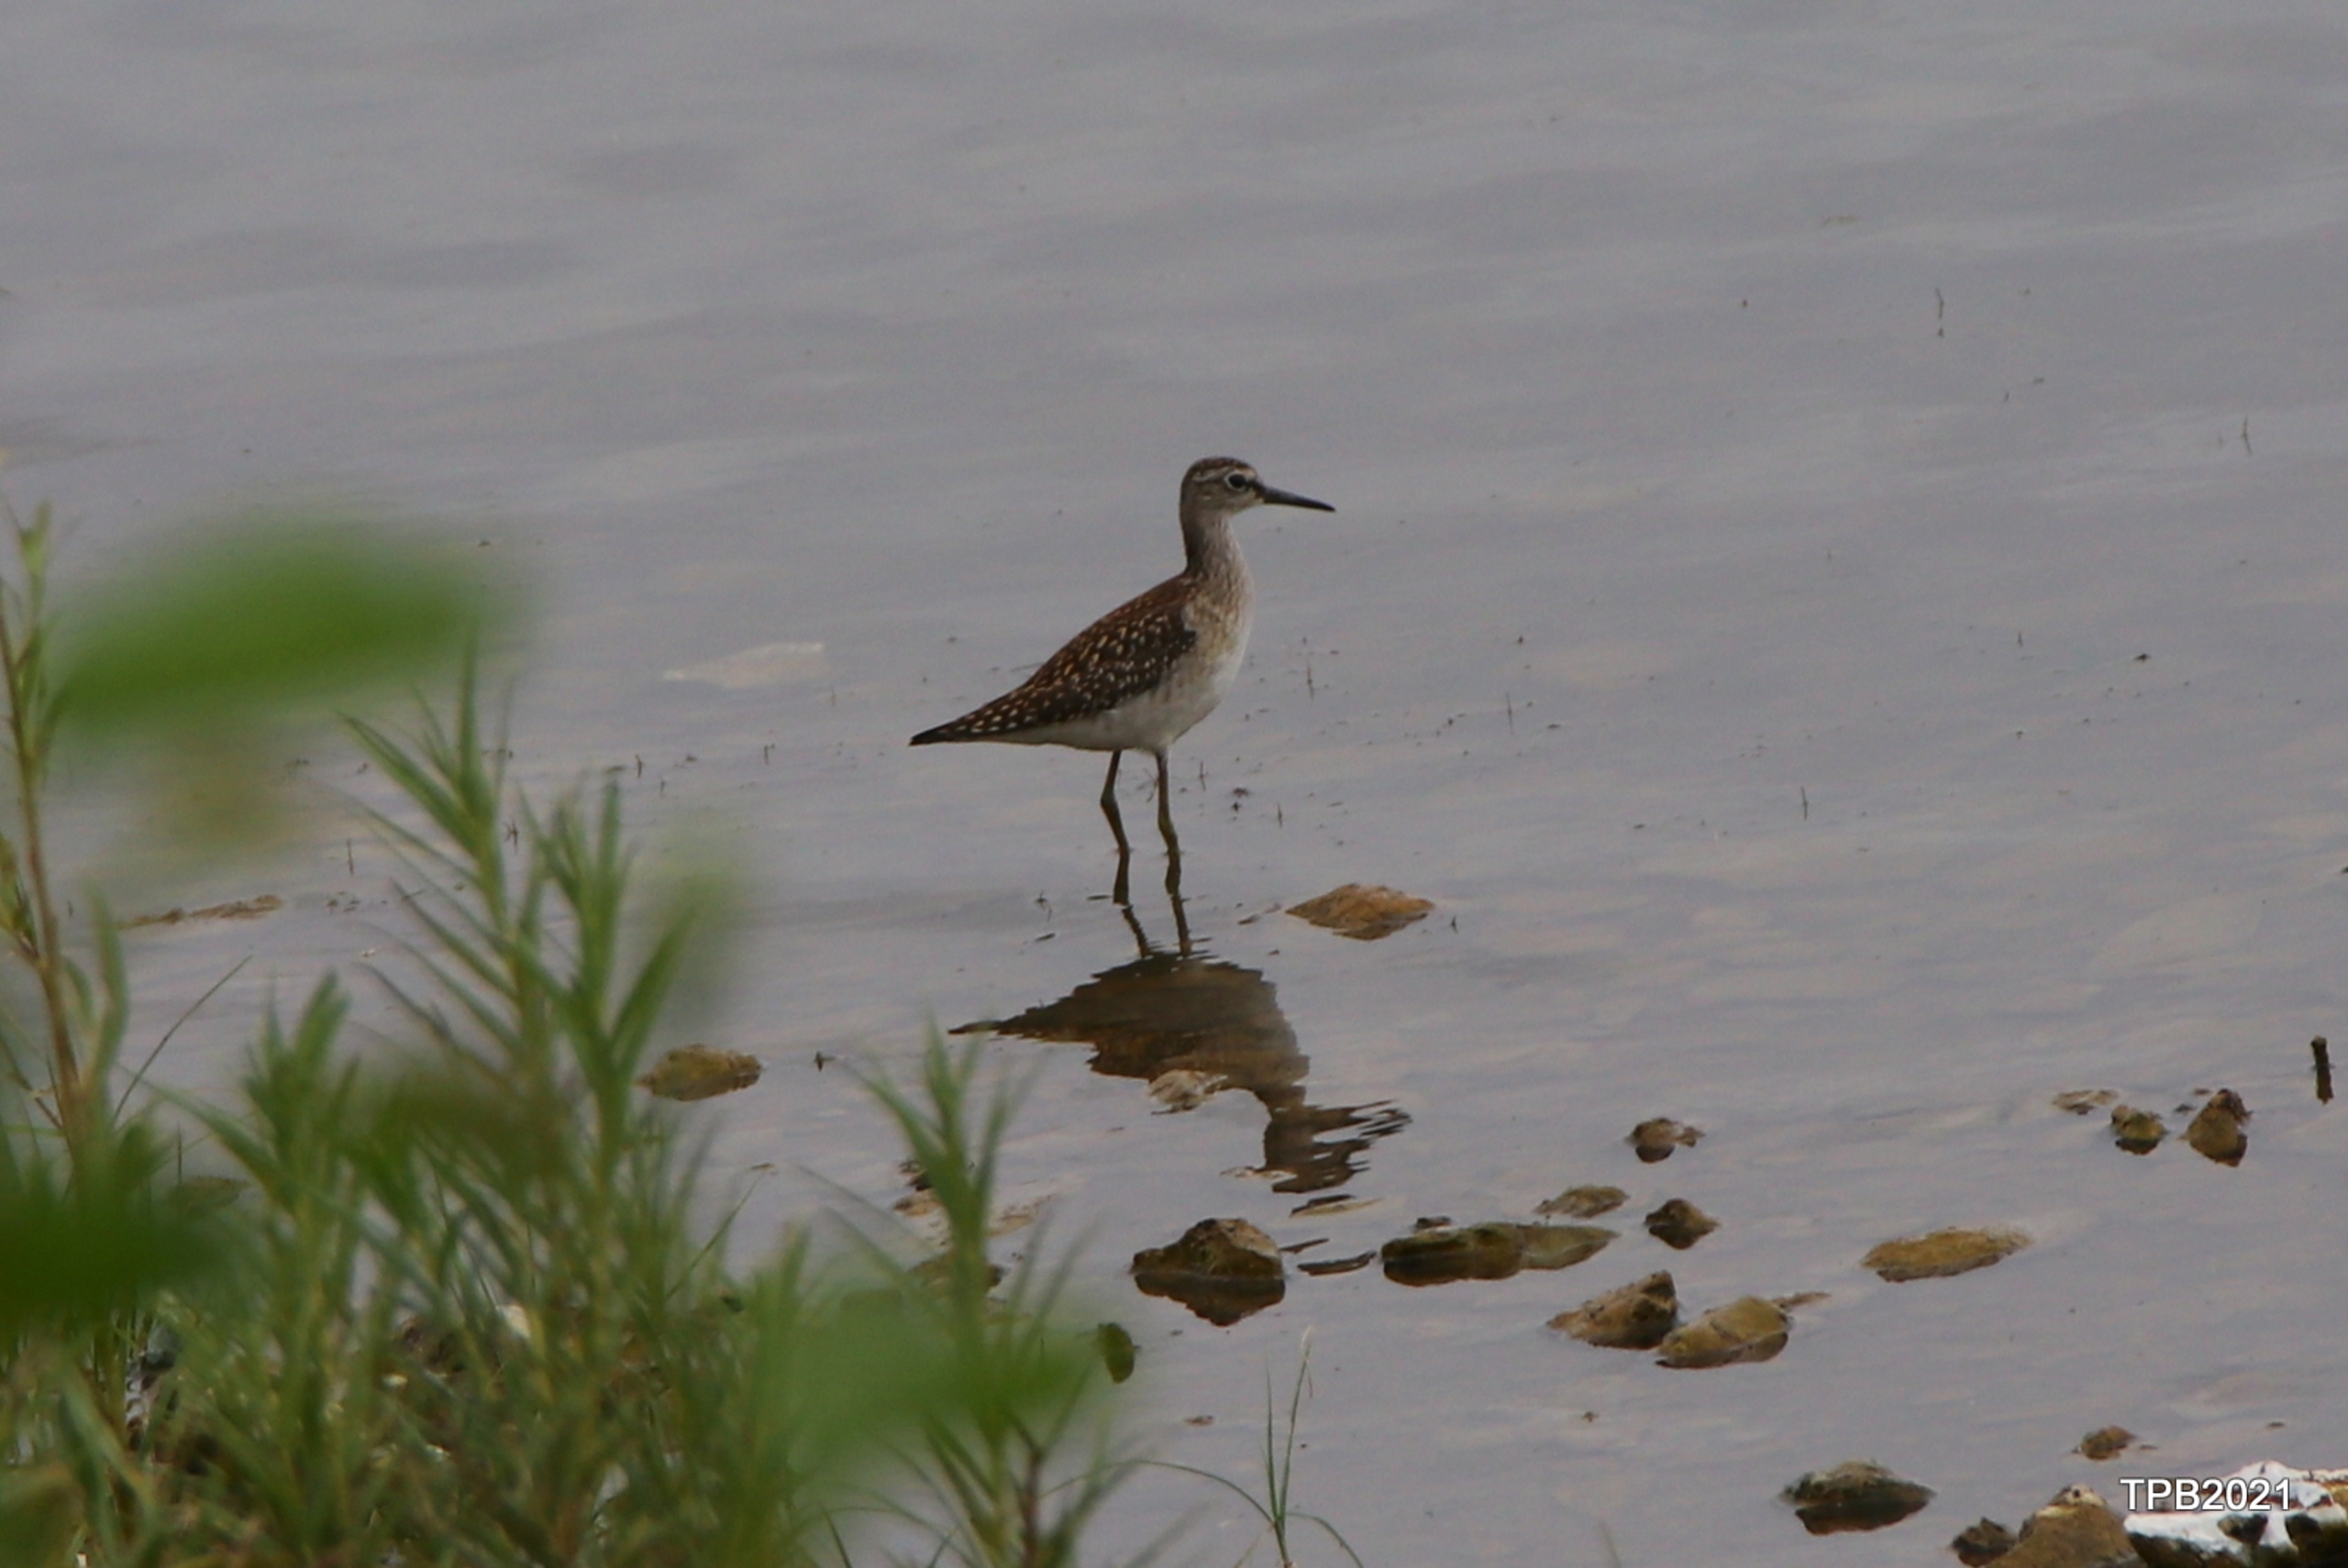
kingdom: Animalia
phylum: Chordata
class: Aves
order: Charadriiformes
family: Scolopacidae
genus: Tringa
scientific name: Tringa glareola
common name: Tinksmed
